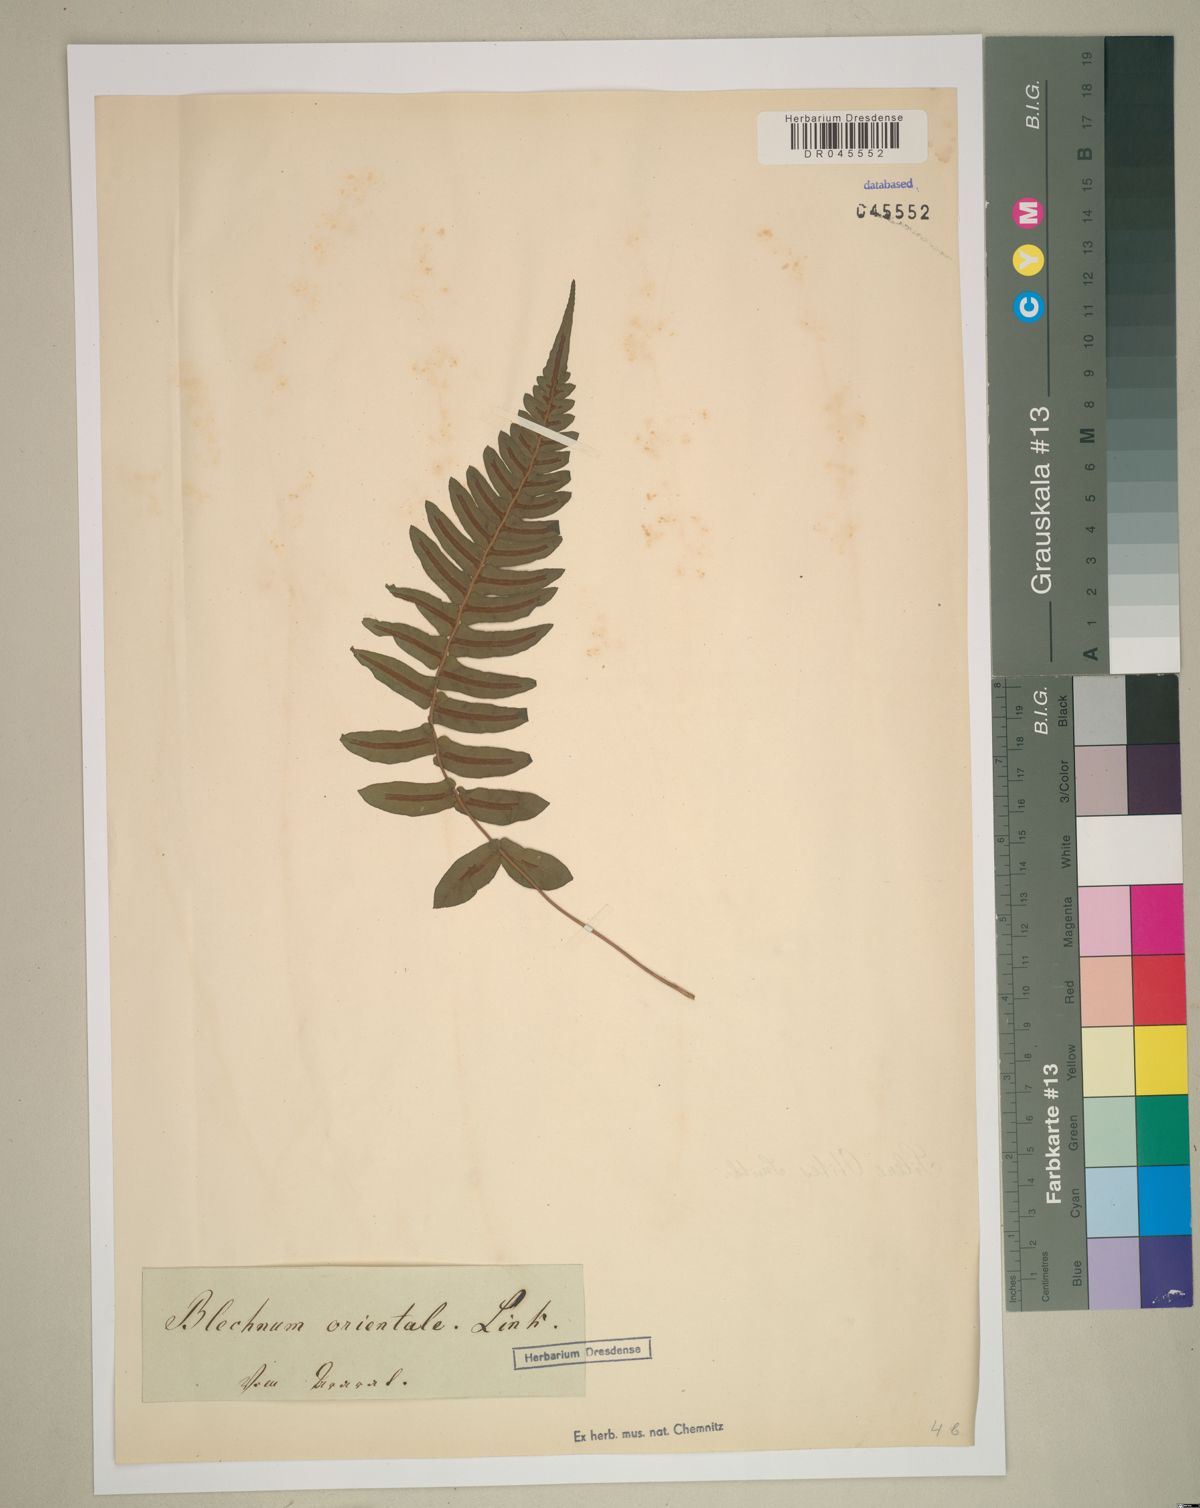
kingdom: Plantae
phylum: Tracheophyta
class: Polypodiopsida
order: Polypodiales
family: Blechnaceae
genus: Blechnopsis
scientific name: Blechnopsis orientalis
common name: Oriental blechnum
